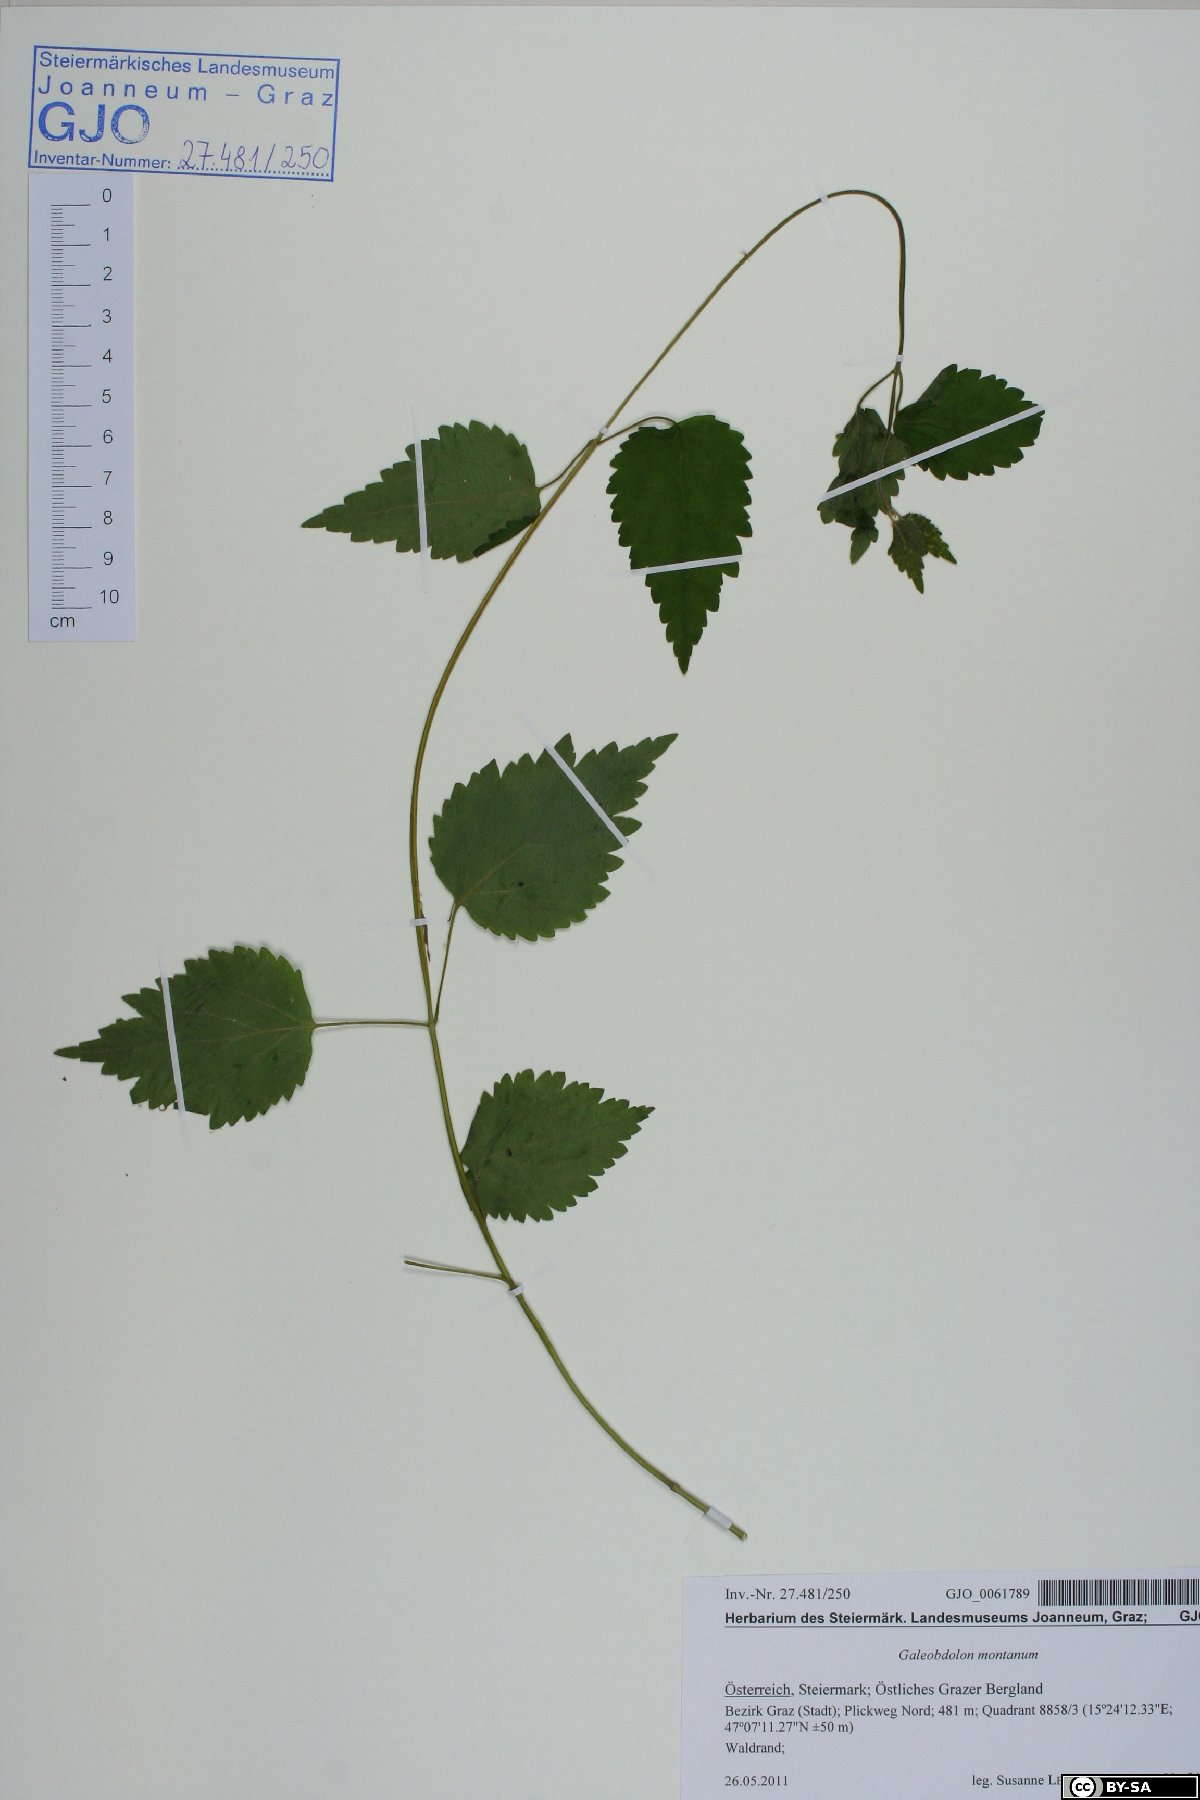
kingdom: Plantae
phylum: Tracheophyta
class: Magnoliopsida
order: Lamiales
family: Lamiaceae
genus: Lamium
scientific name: Lamium galeobdolon
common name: Yellow archangel
